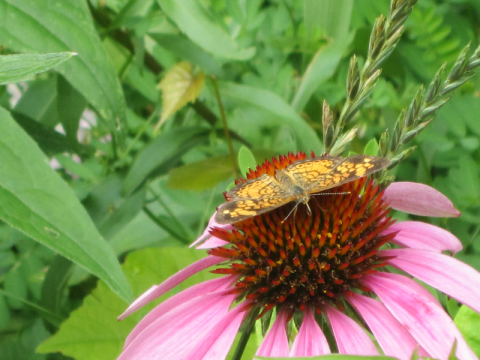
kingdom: Animalia
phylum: Arthropoda
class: Insecta
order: Lepidoptera
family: Nymphalidae
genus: Phyciodes
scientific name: Phyciodes tharos
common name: Northern Crescent
